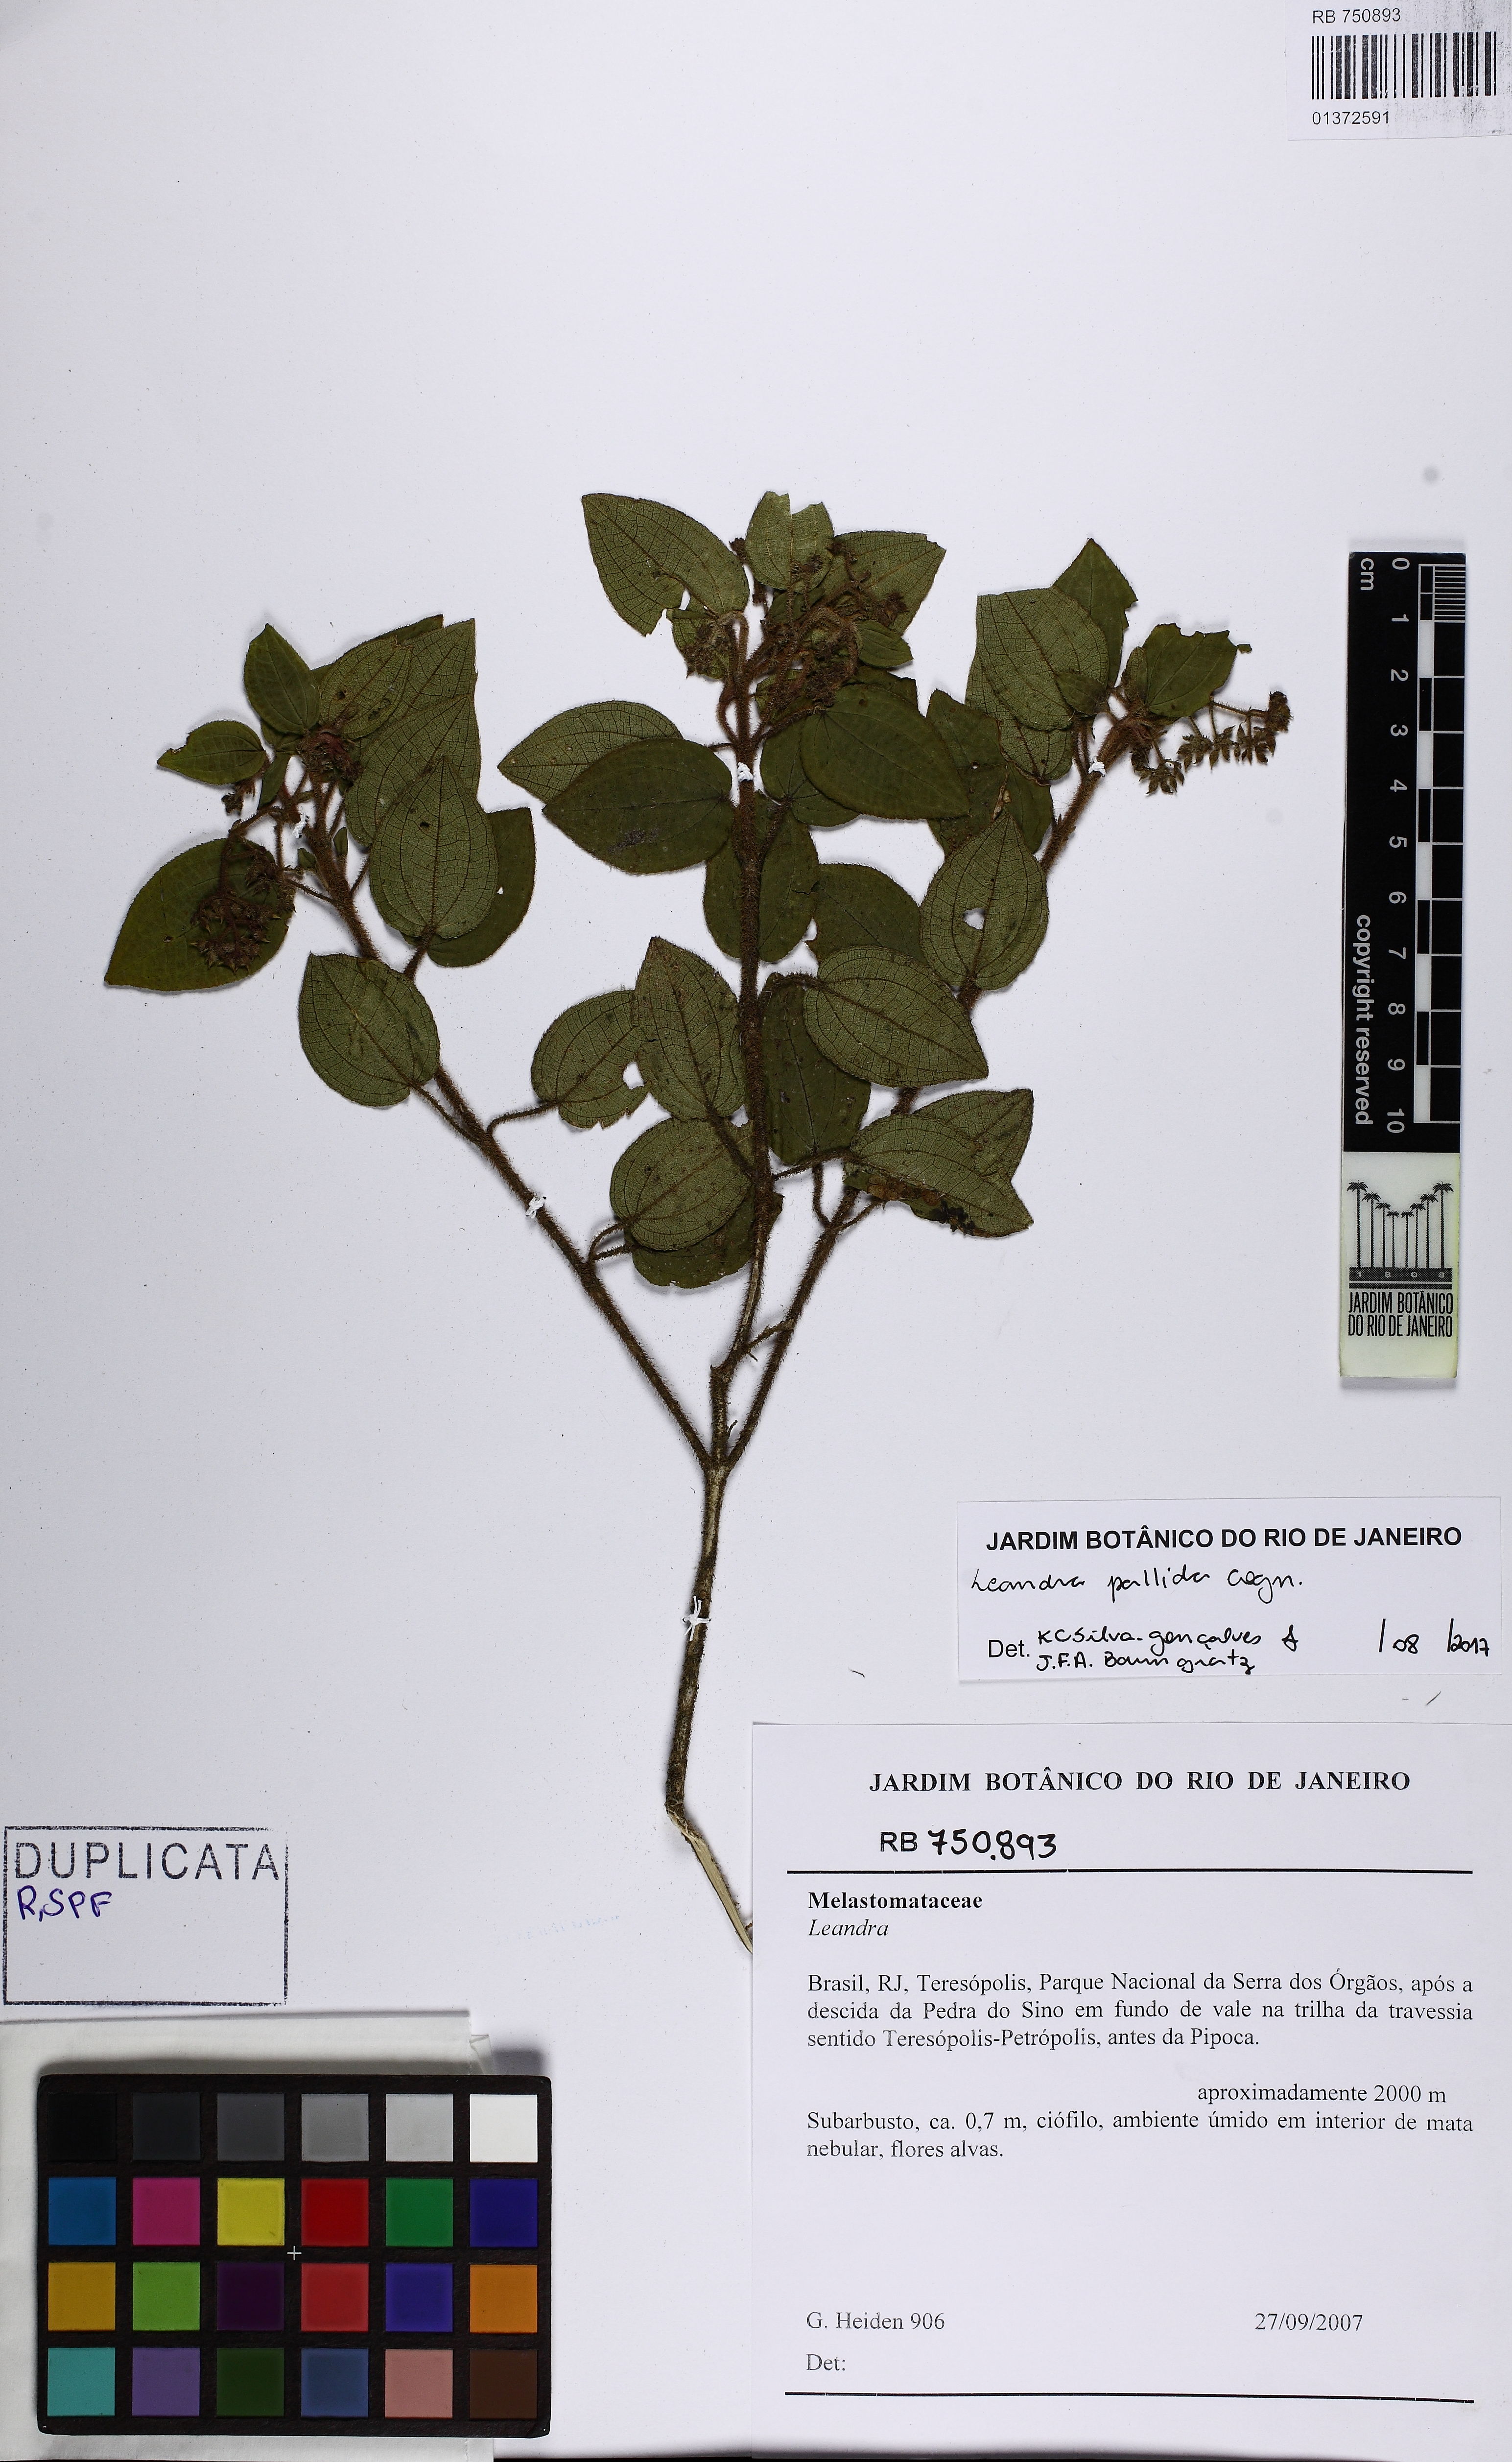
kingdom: Plantae
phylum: Tracheophyta
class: Magnoliopsida
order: Myrtales
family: Melastomataceae
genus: Miconia
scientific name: Miconia leapallida
